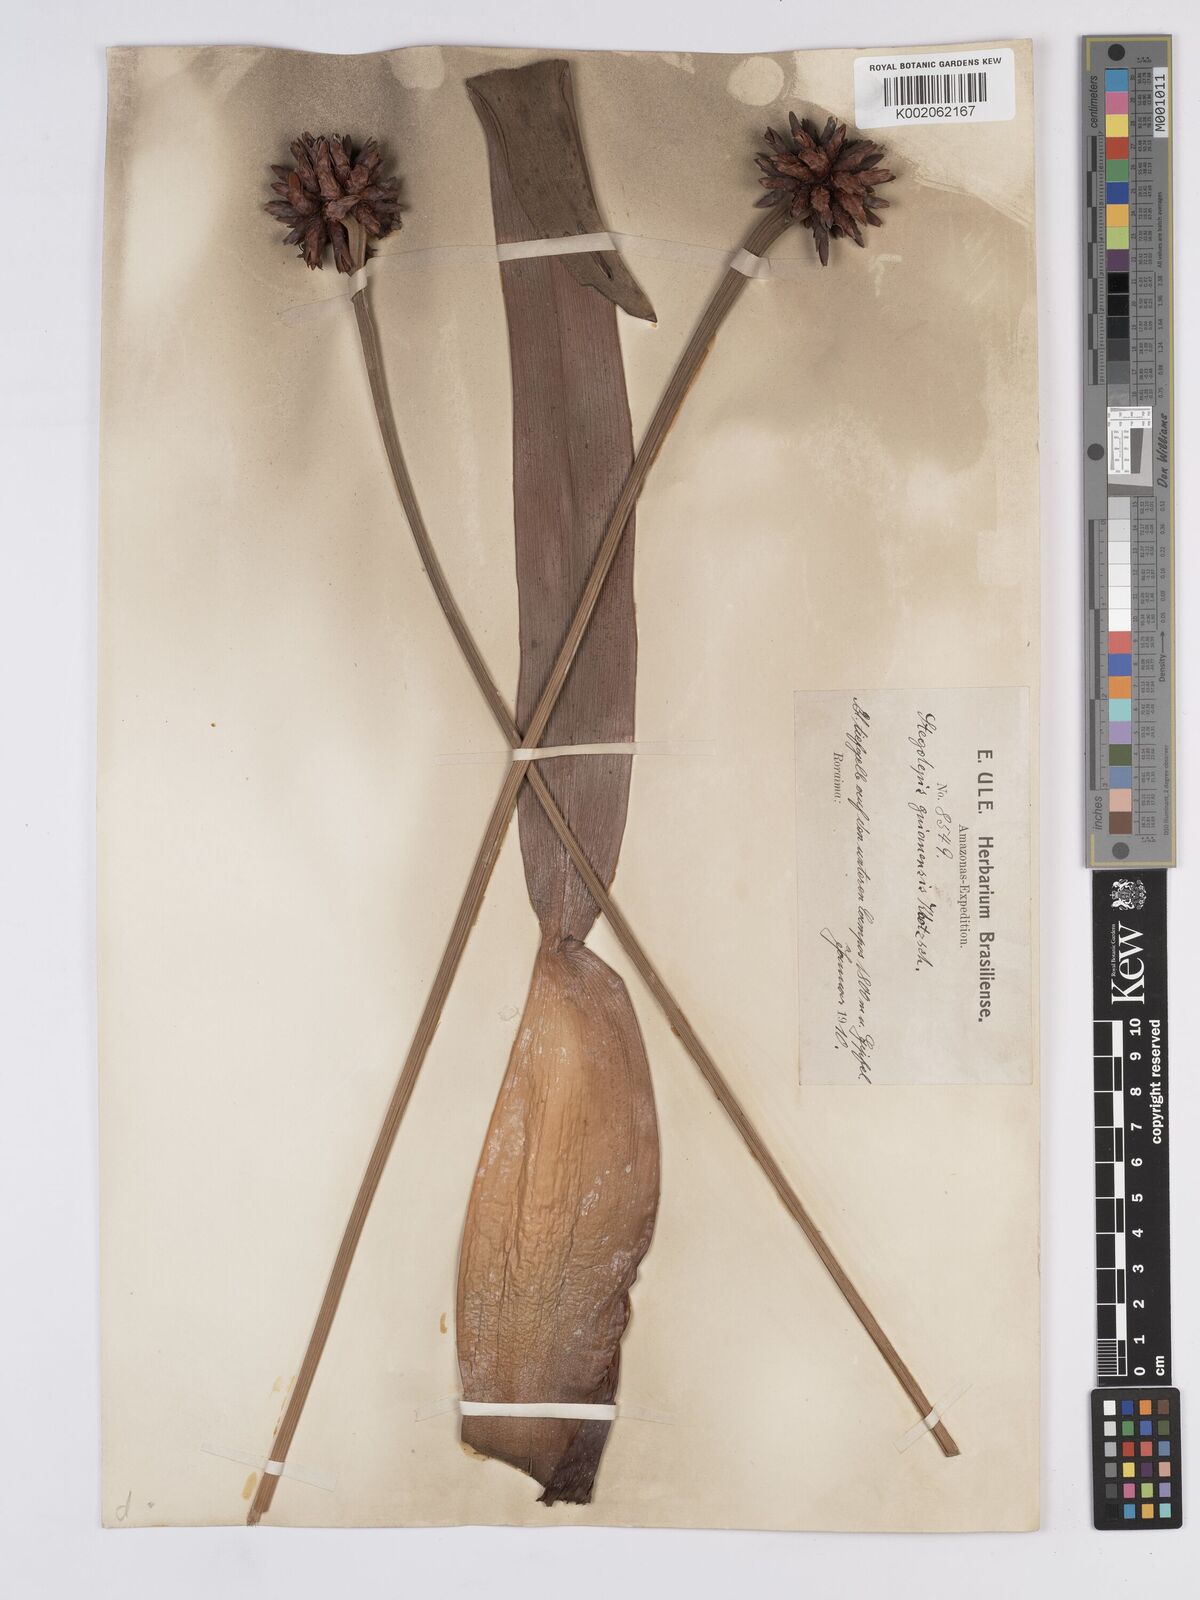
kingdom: Plantae
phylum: Tracheophyta
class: Liliopsida
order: Poales
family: Rapateaceae
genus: Stegolepis
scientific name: Stegolepis guianensis
